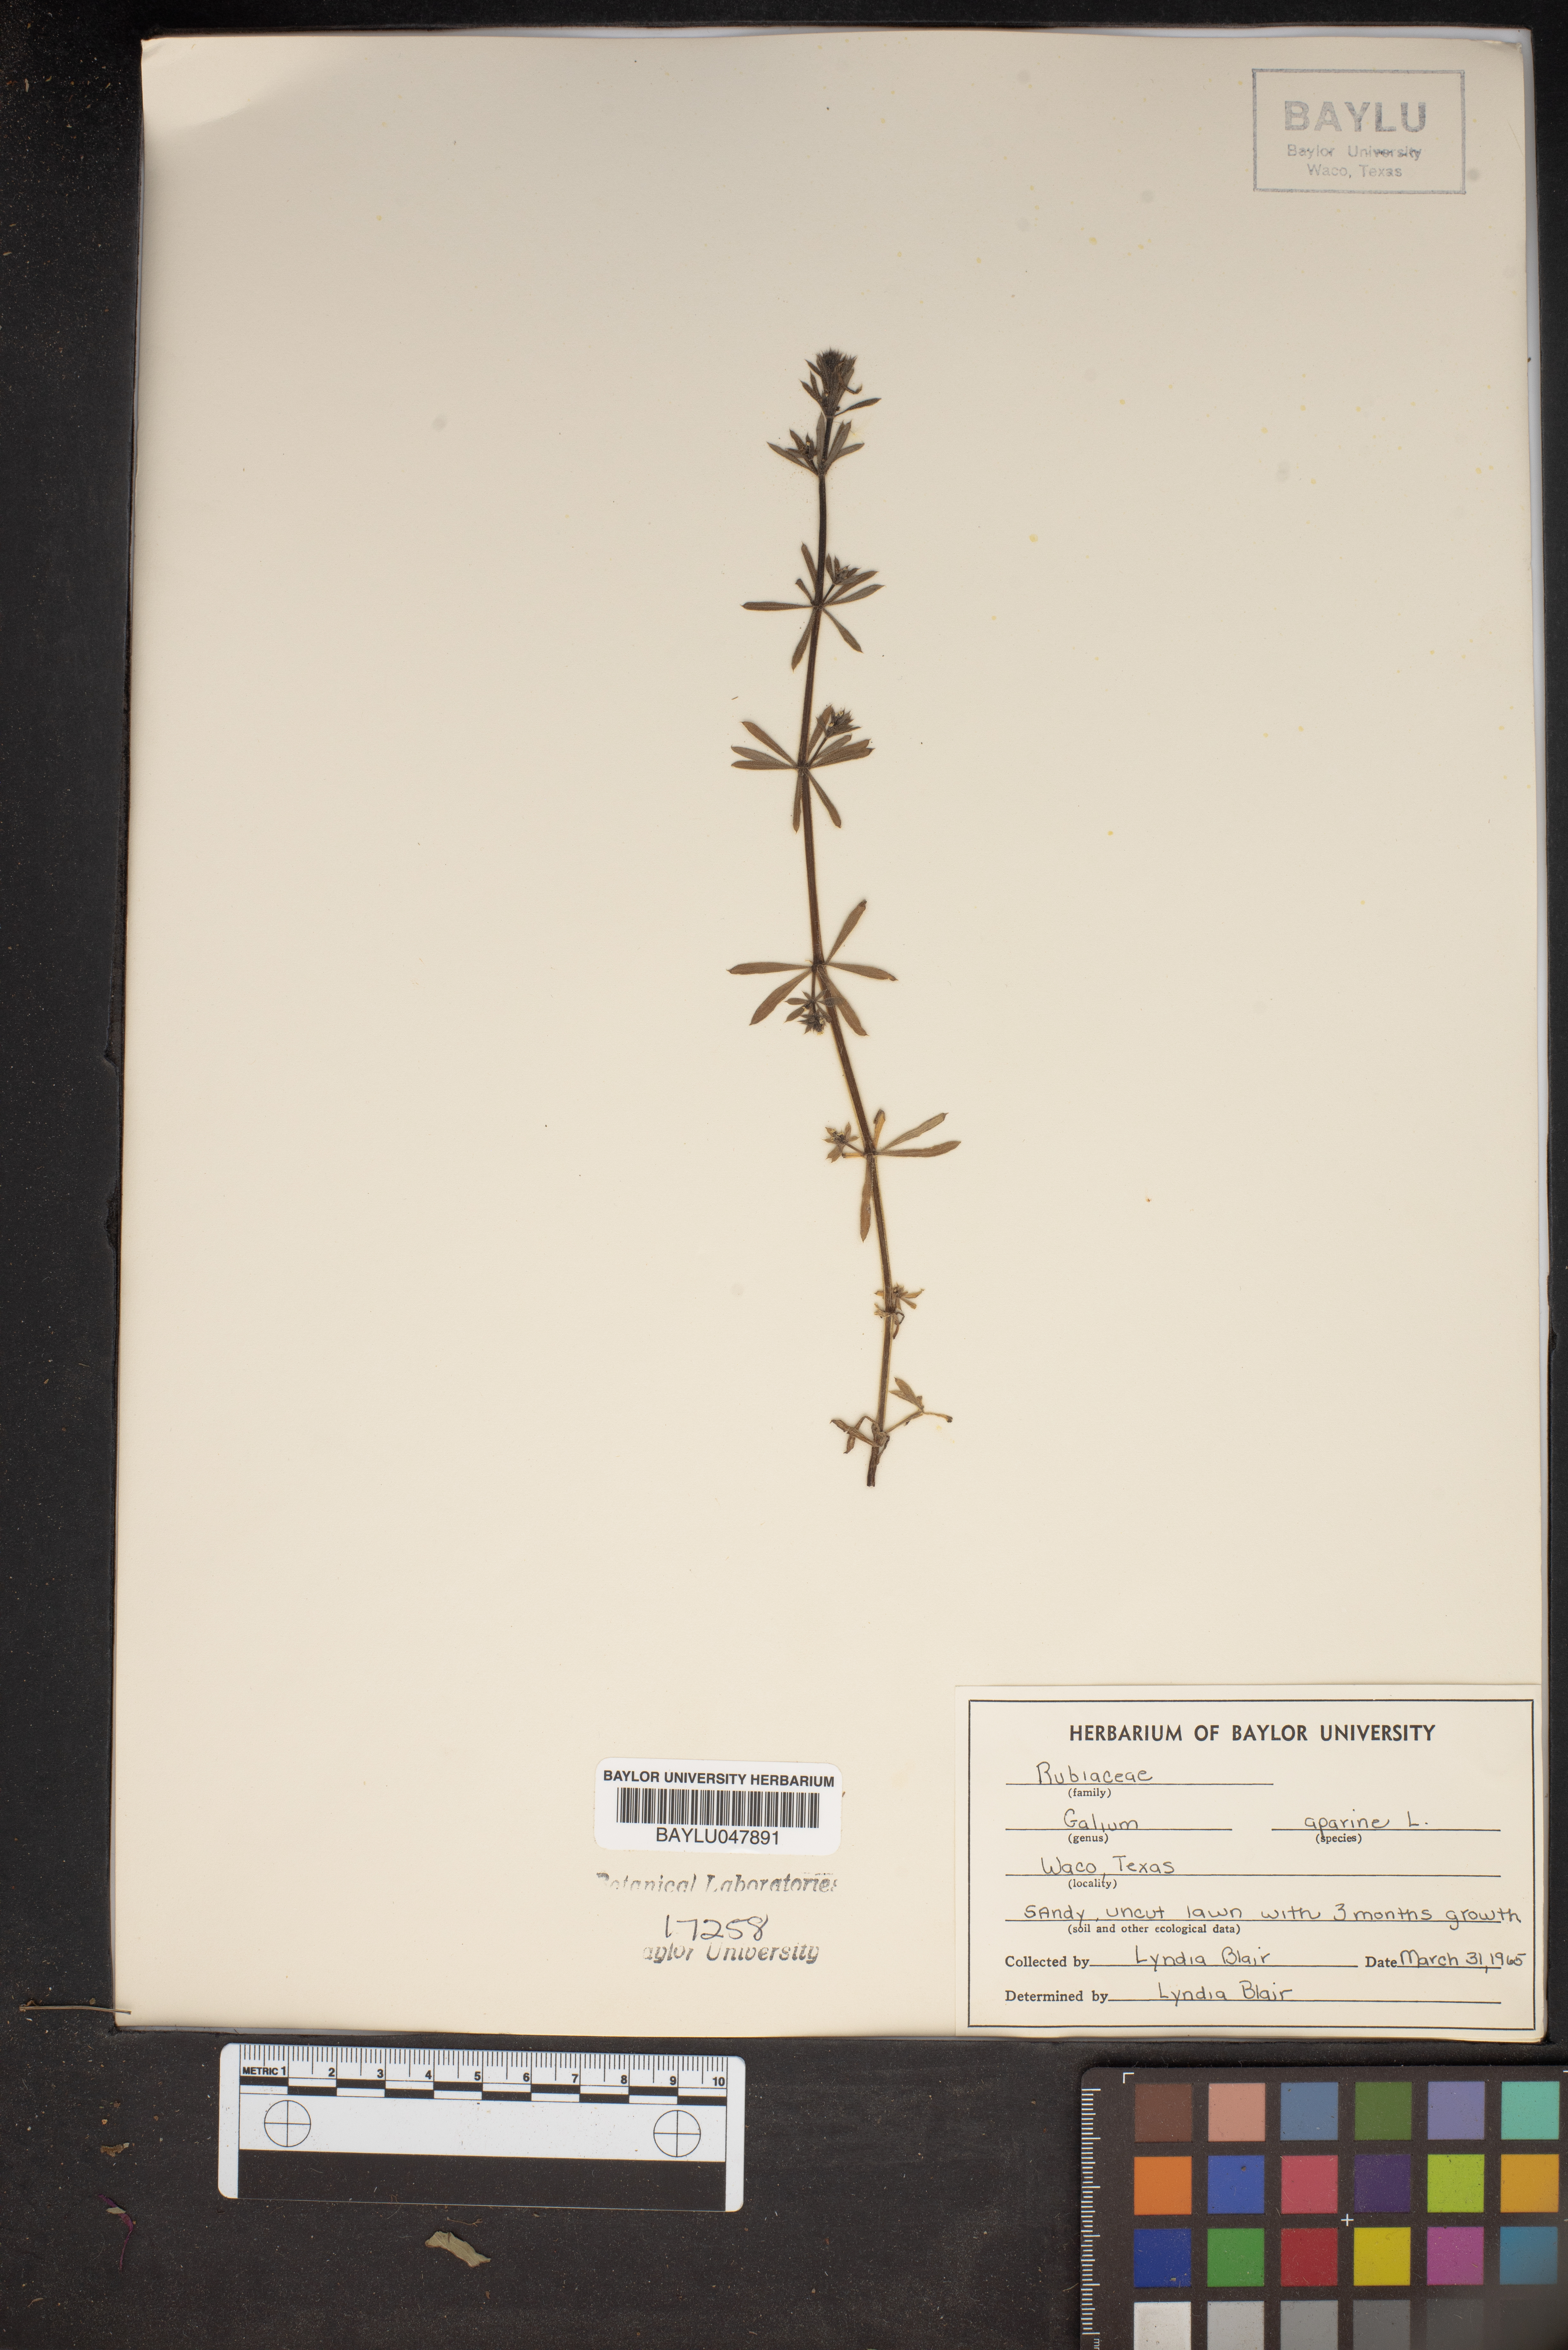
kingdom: Plantae
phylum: Tracheophyta
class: Magnoliopsida
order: Gentianales
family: Rubiaceae
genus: Galium
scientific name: Galium aparine
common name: Cleavers
